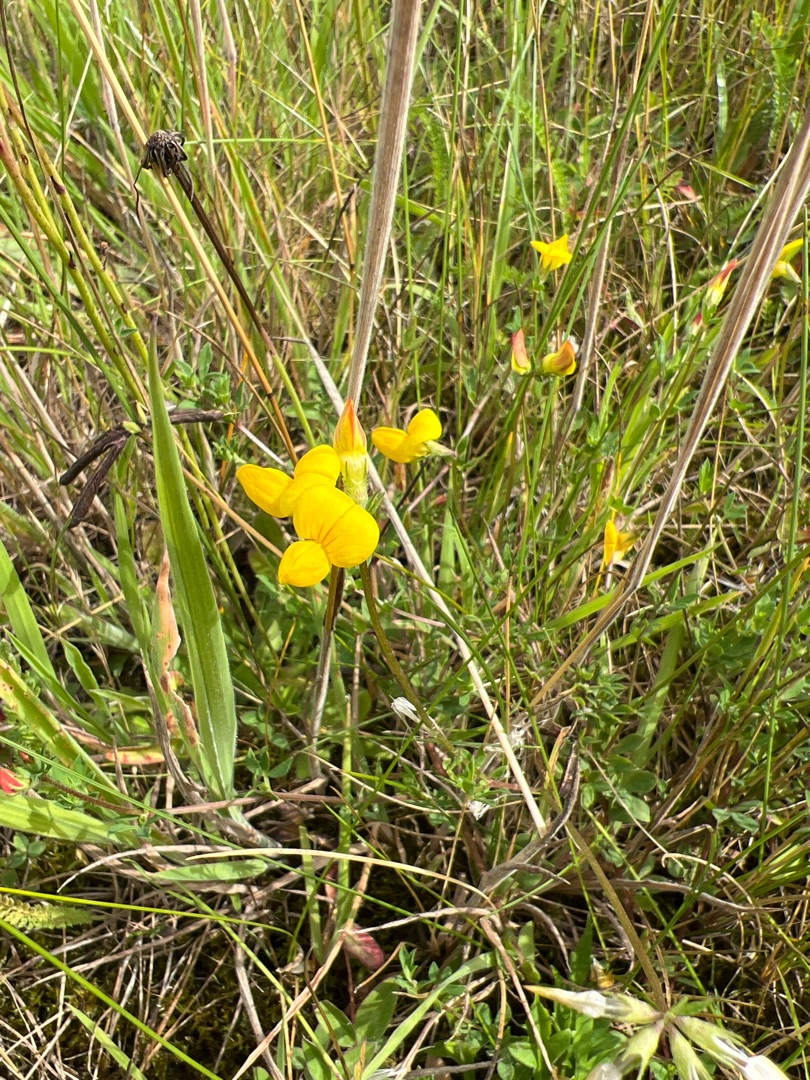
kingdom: Plantae
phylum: Tracheophyta
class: Magnoliopsida
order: Fabales
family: Fabaceae
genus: Lotus
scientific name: Lotus corniculatus
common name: Almindelig kællingetand
